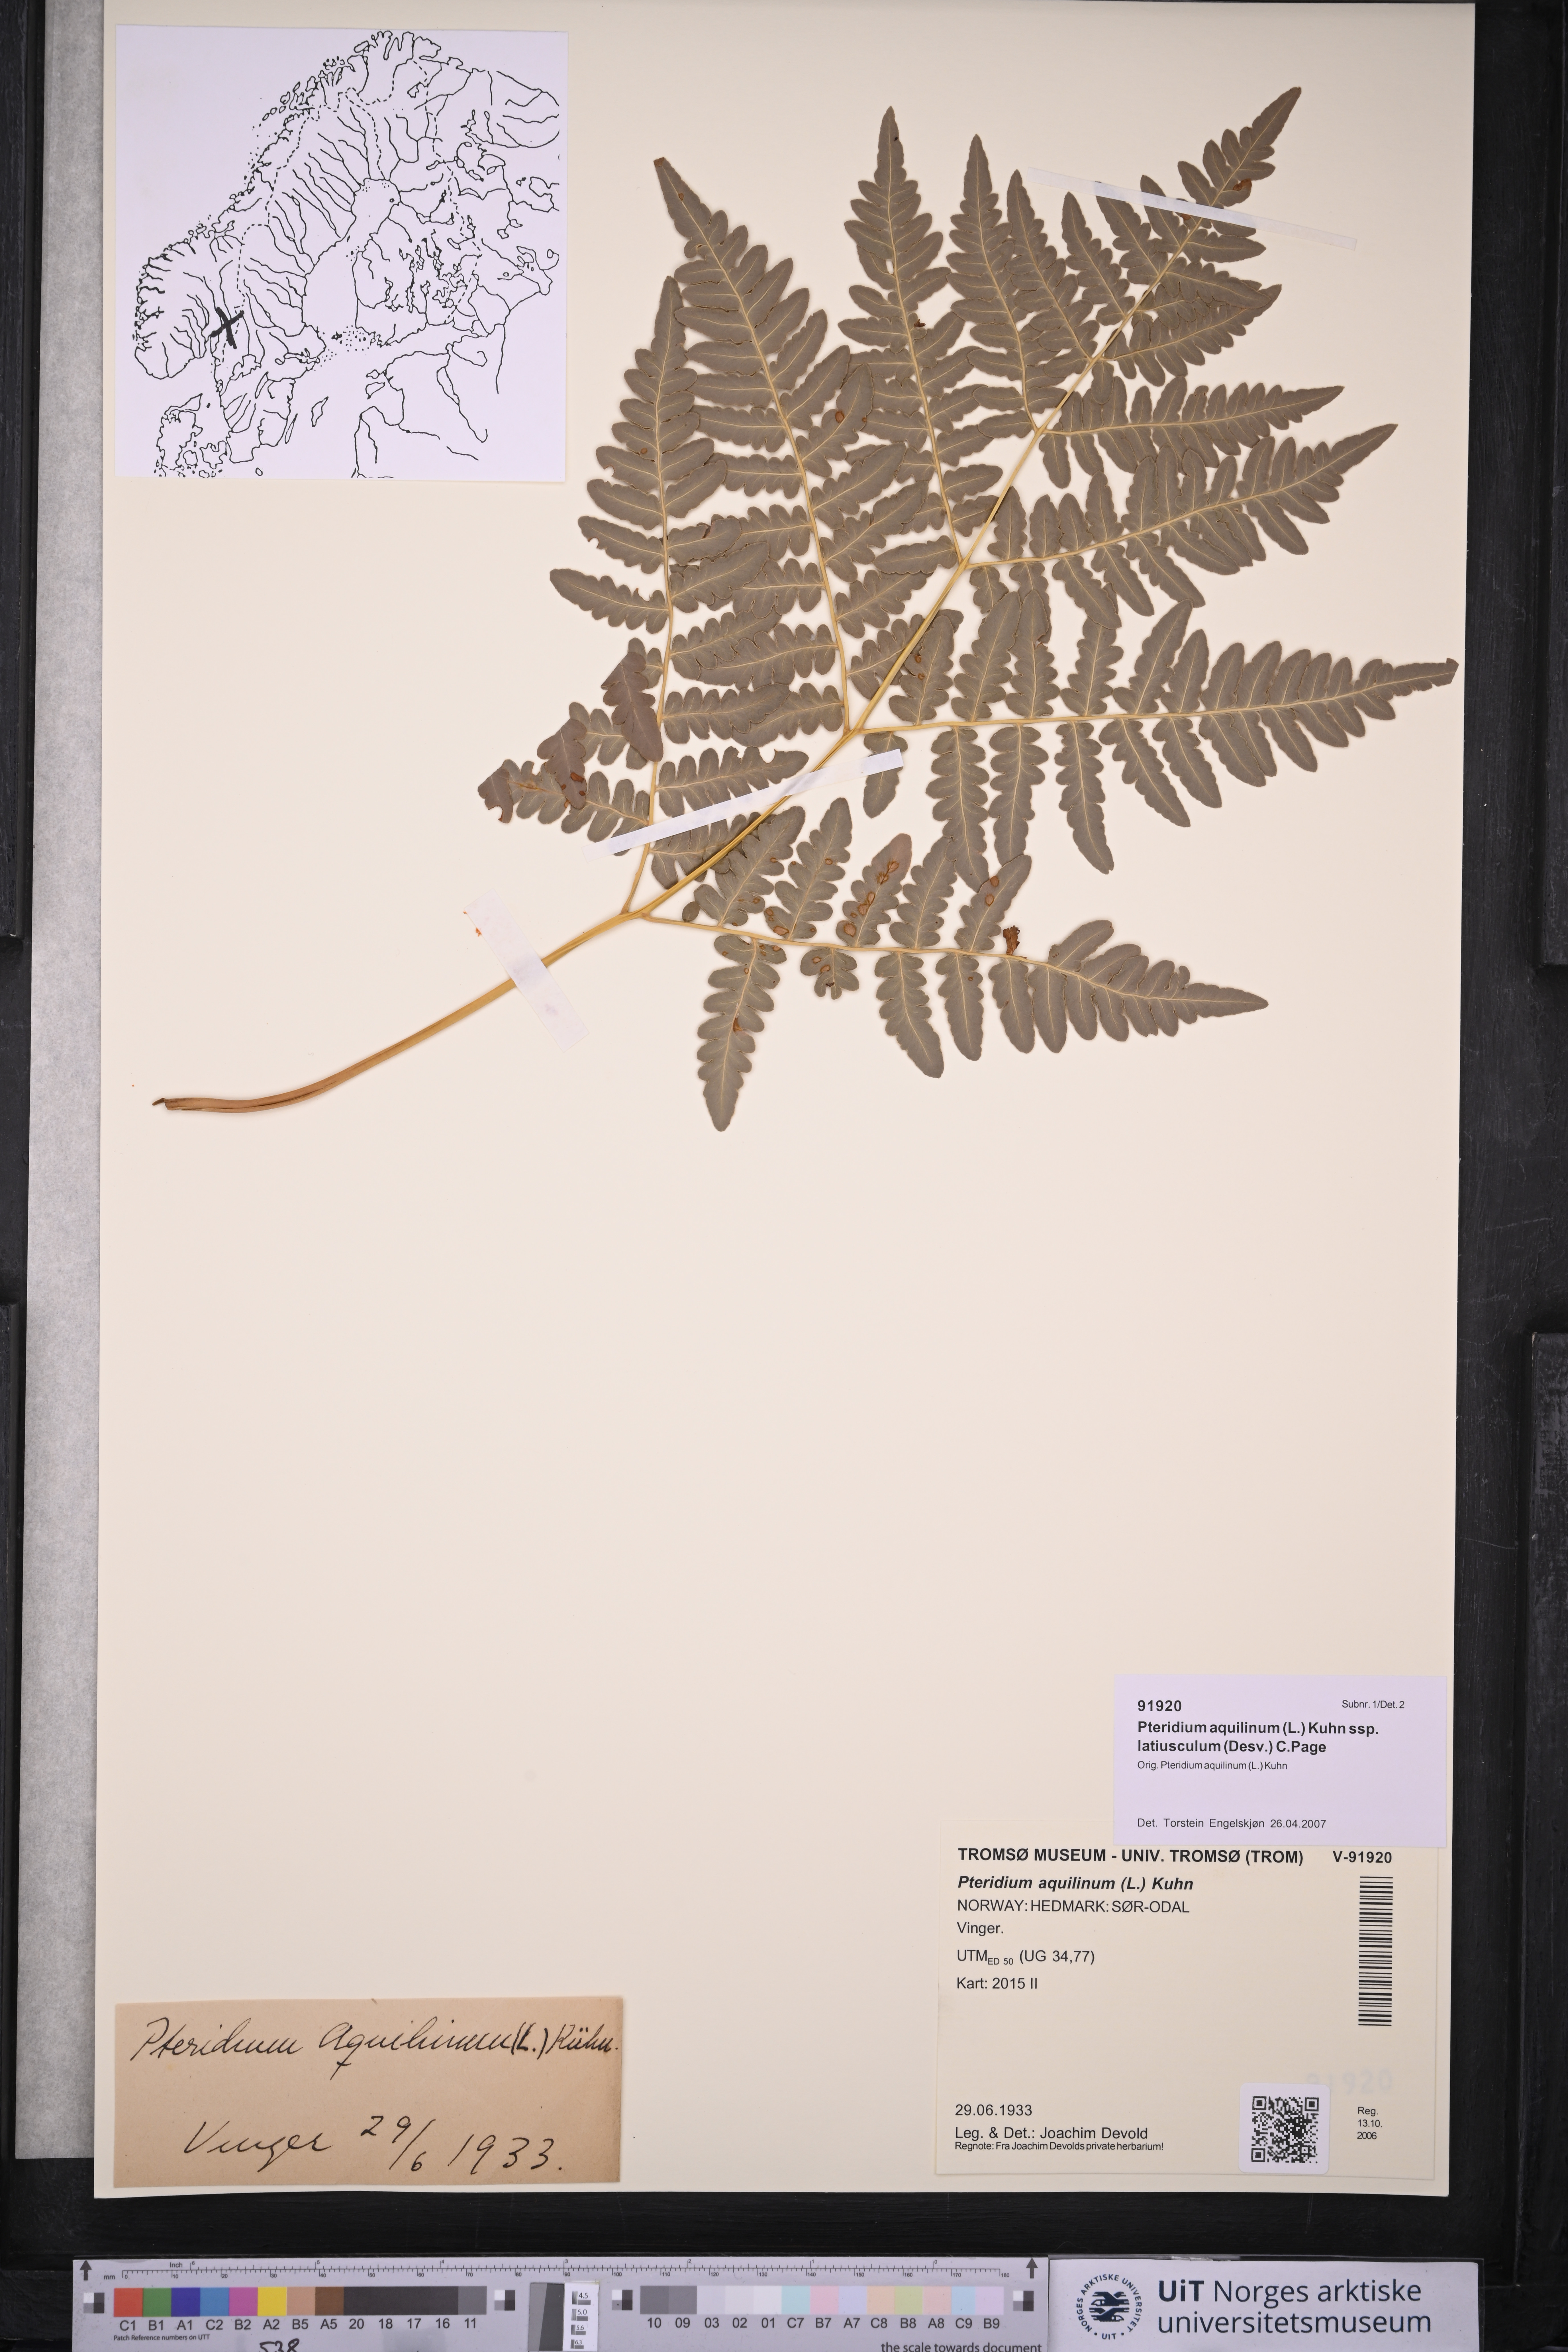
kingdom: Plantae
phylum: Tracheophyta
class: Polypodiopsida
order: Polypodiales
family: Dennstaedtiaceae
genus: Pteridium
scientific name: Pteridium aquilinum
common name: Bracken
